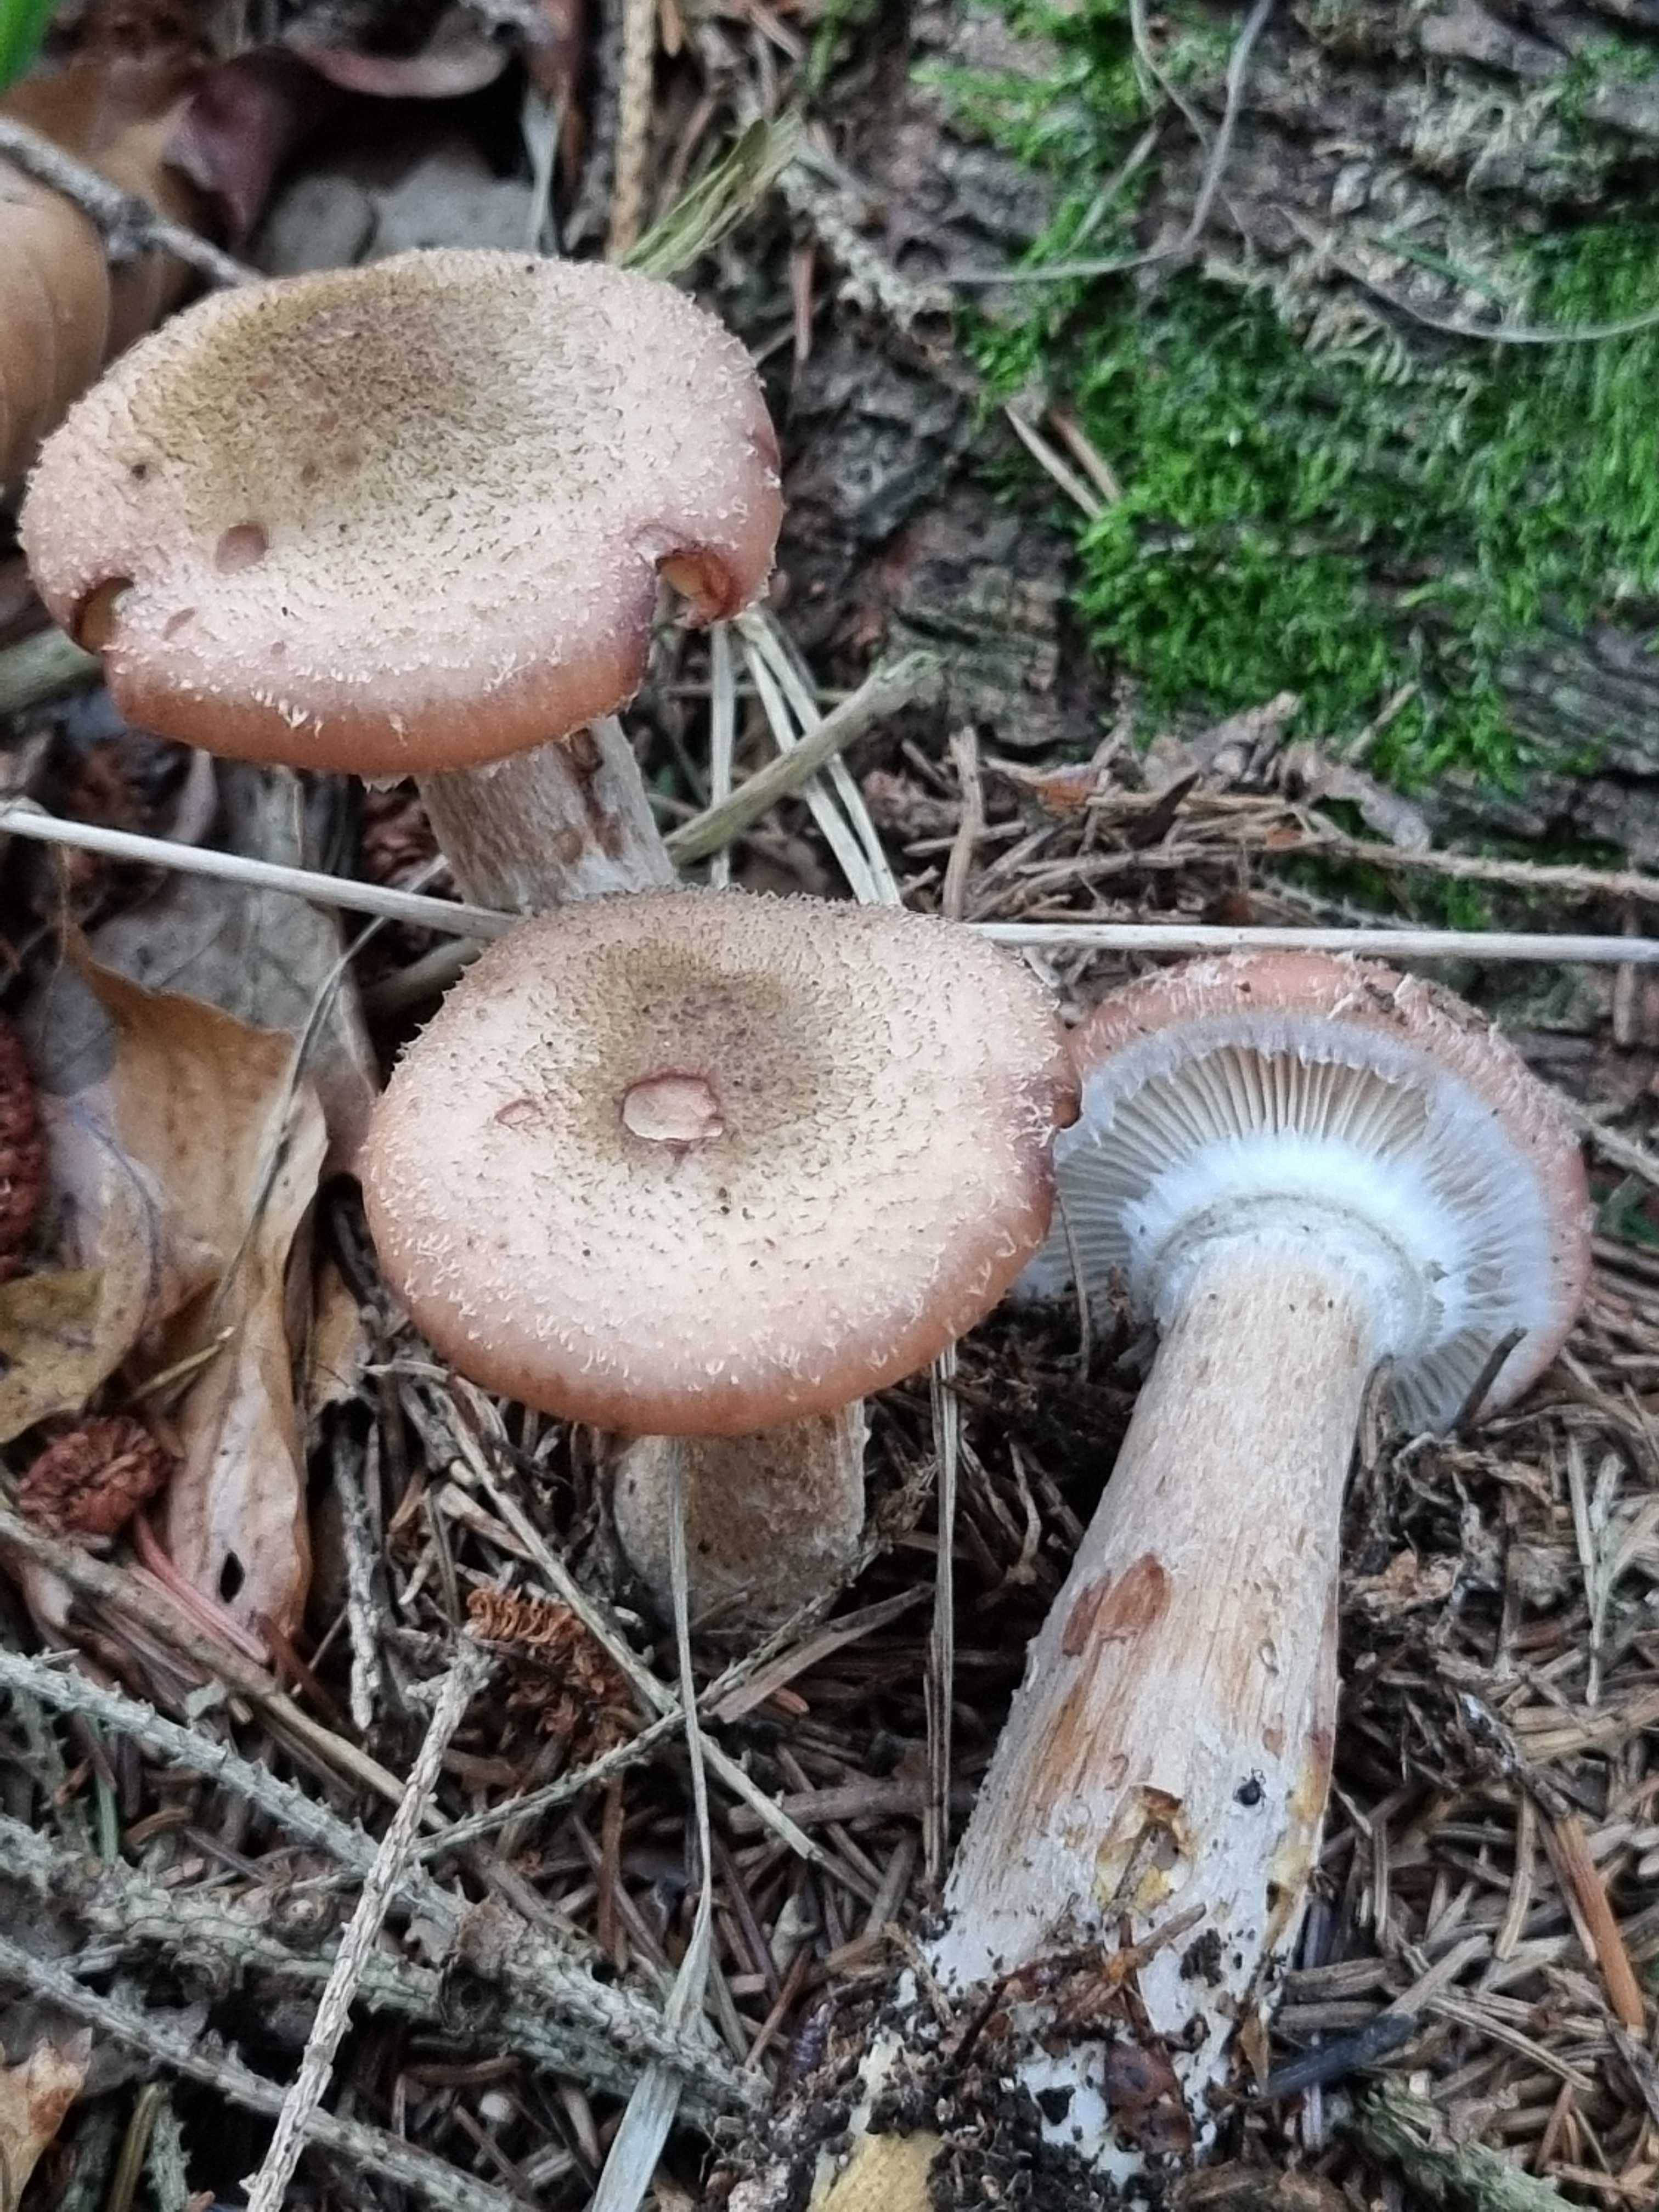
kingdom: Fungi
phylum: Basidiomycota
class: Agaricomycetes
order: Agaricales
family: Physalacriaceae
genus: Armillaria
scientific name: Armillaria ostoyae
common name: mørk honningsvamp
